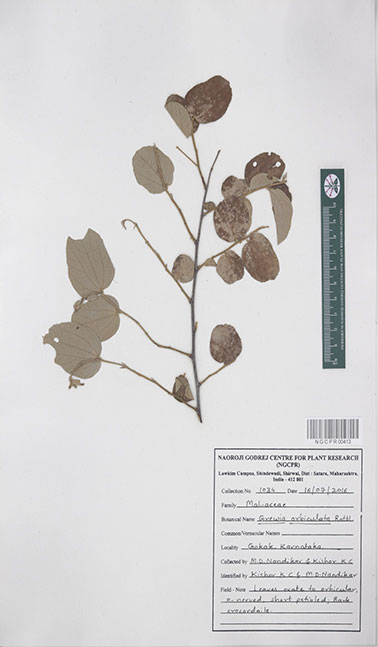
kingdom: Plantae
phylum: Tracheophyta
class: Magnoliopsida
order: Malvales
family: Malvaceae
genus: Grewia
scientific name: Grewia orbiculata
